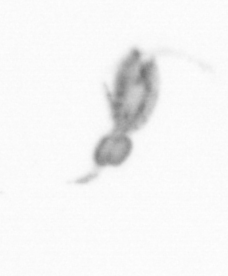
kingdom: Animalia
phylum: Arthropoda
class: Copepoda
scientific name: Copepoda
